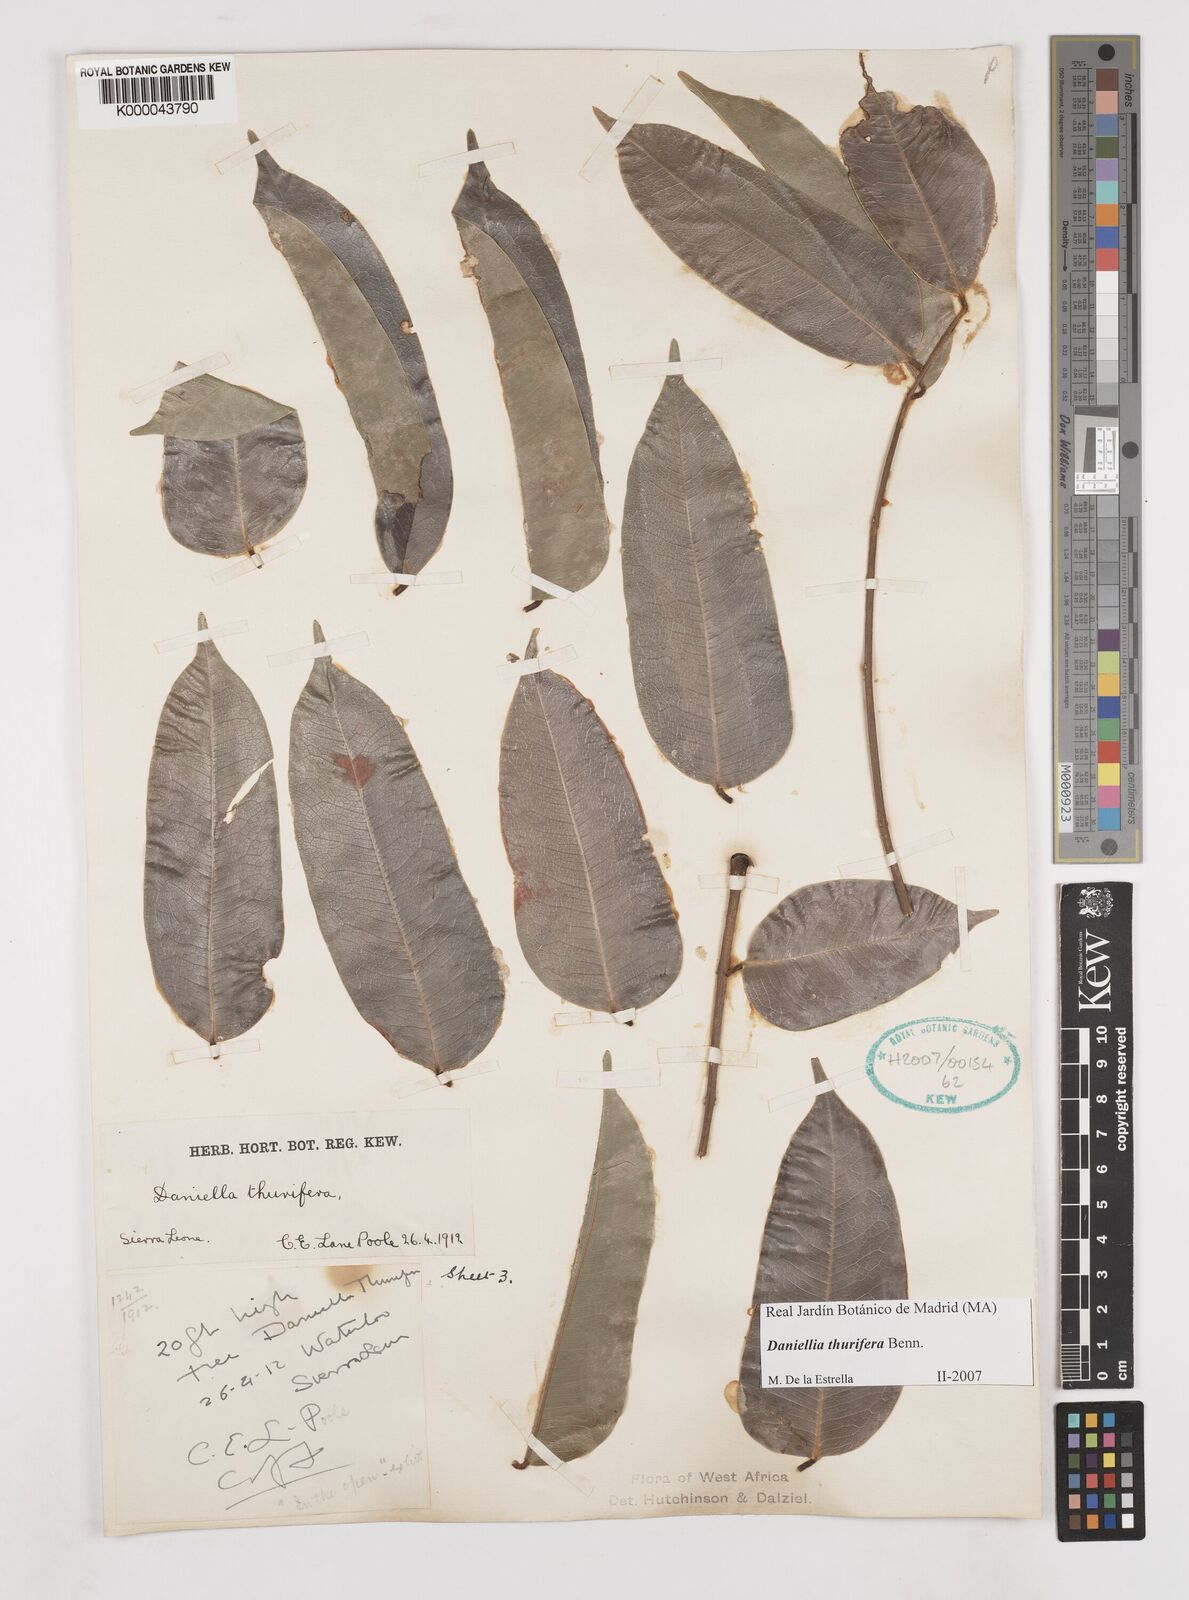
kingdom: Plantae
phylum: Tracheophyta
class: Magnoliopsida
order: Fabales
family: Fabaceae
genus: Daniellia
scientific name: Daniellia thurifera
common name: Sudan copal
